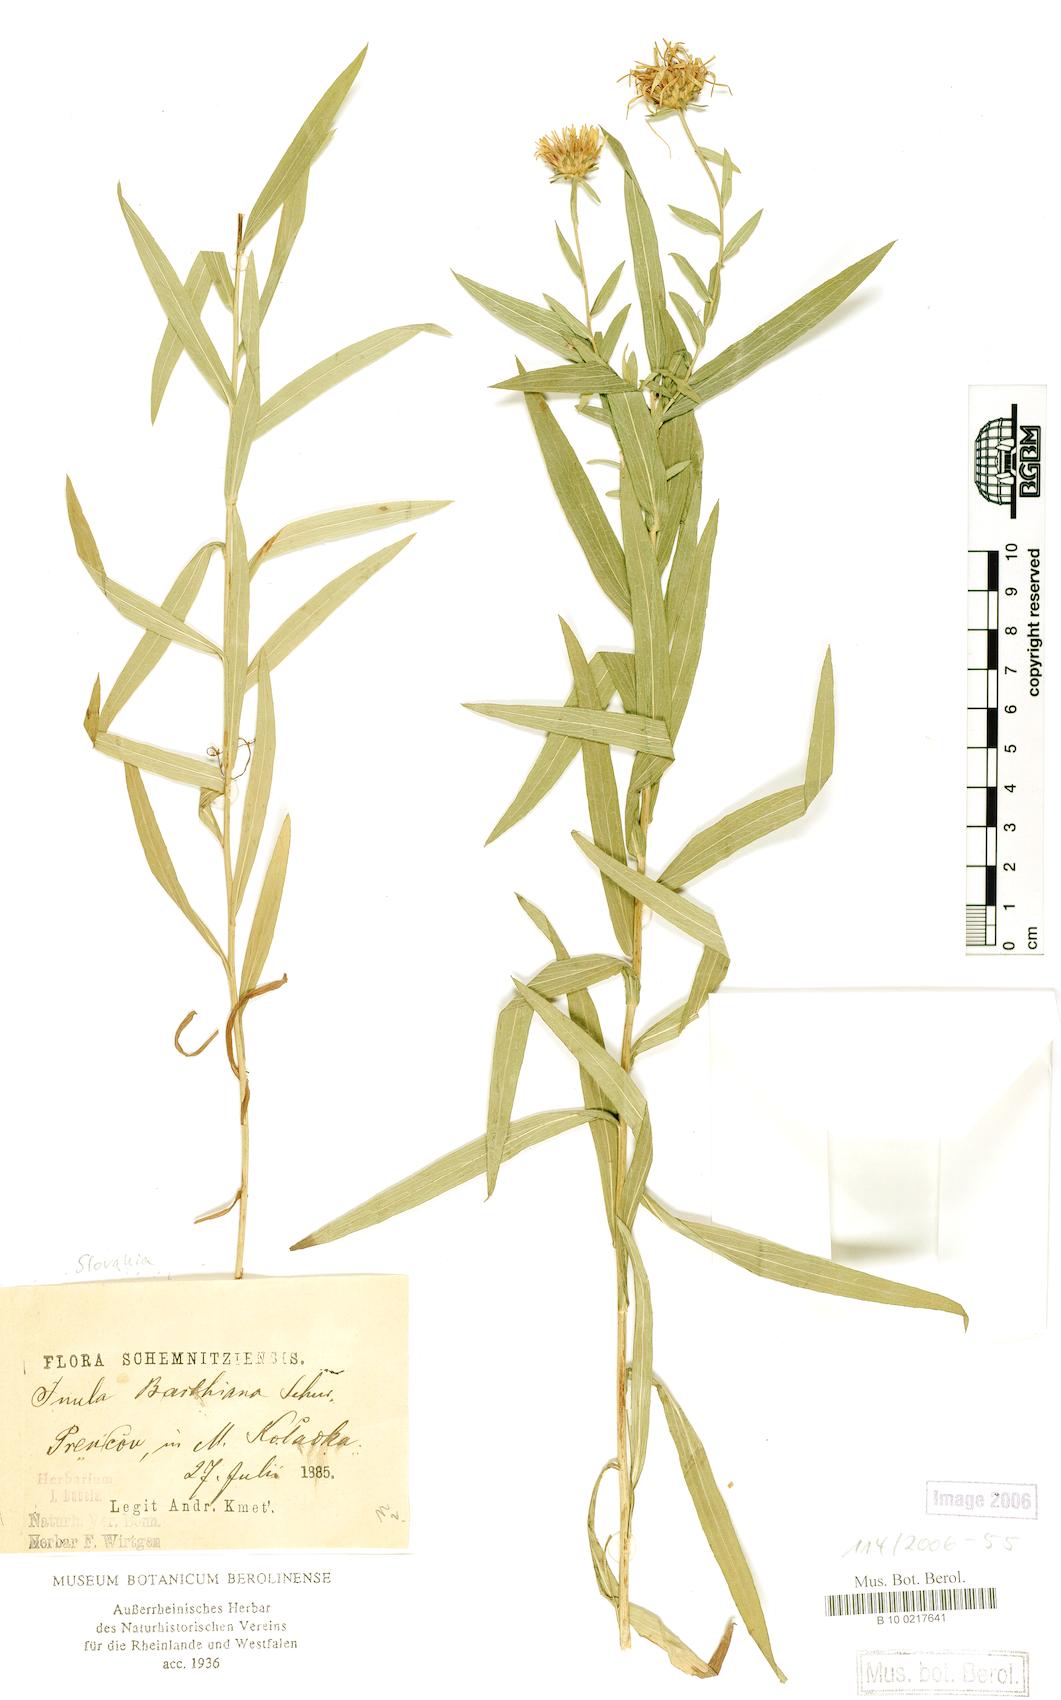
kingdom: Plantae
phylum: Tracheophyta
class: Magnoliopsida
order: Asterales
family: Asteraceae
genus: Pentanema
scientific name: Pentanema strictum
